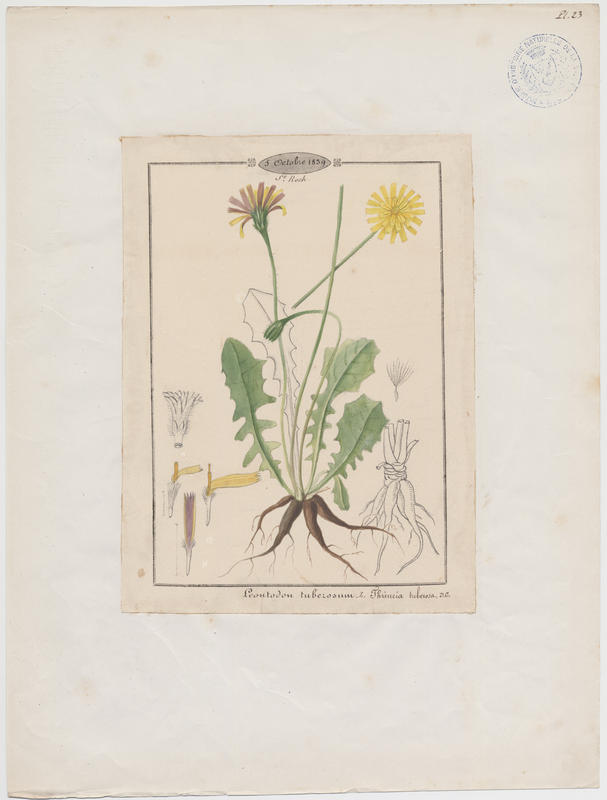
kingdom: Plantae
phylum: Tracheophyta
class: Magnoliopsida
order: Asterales
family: Asteraceae
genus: Thrincia
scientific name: Thrincia tuberosa
